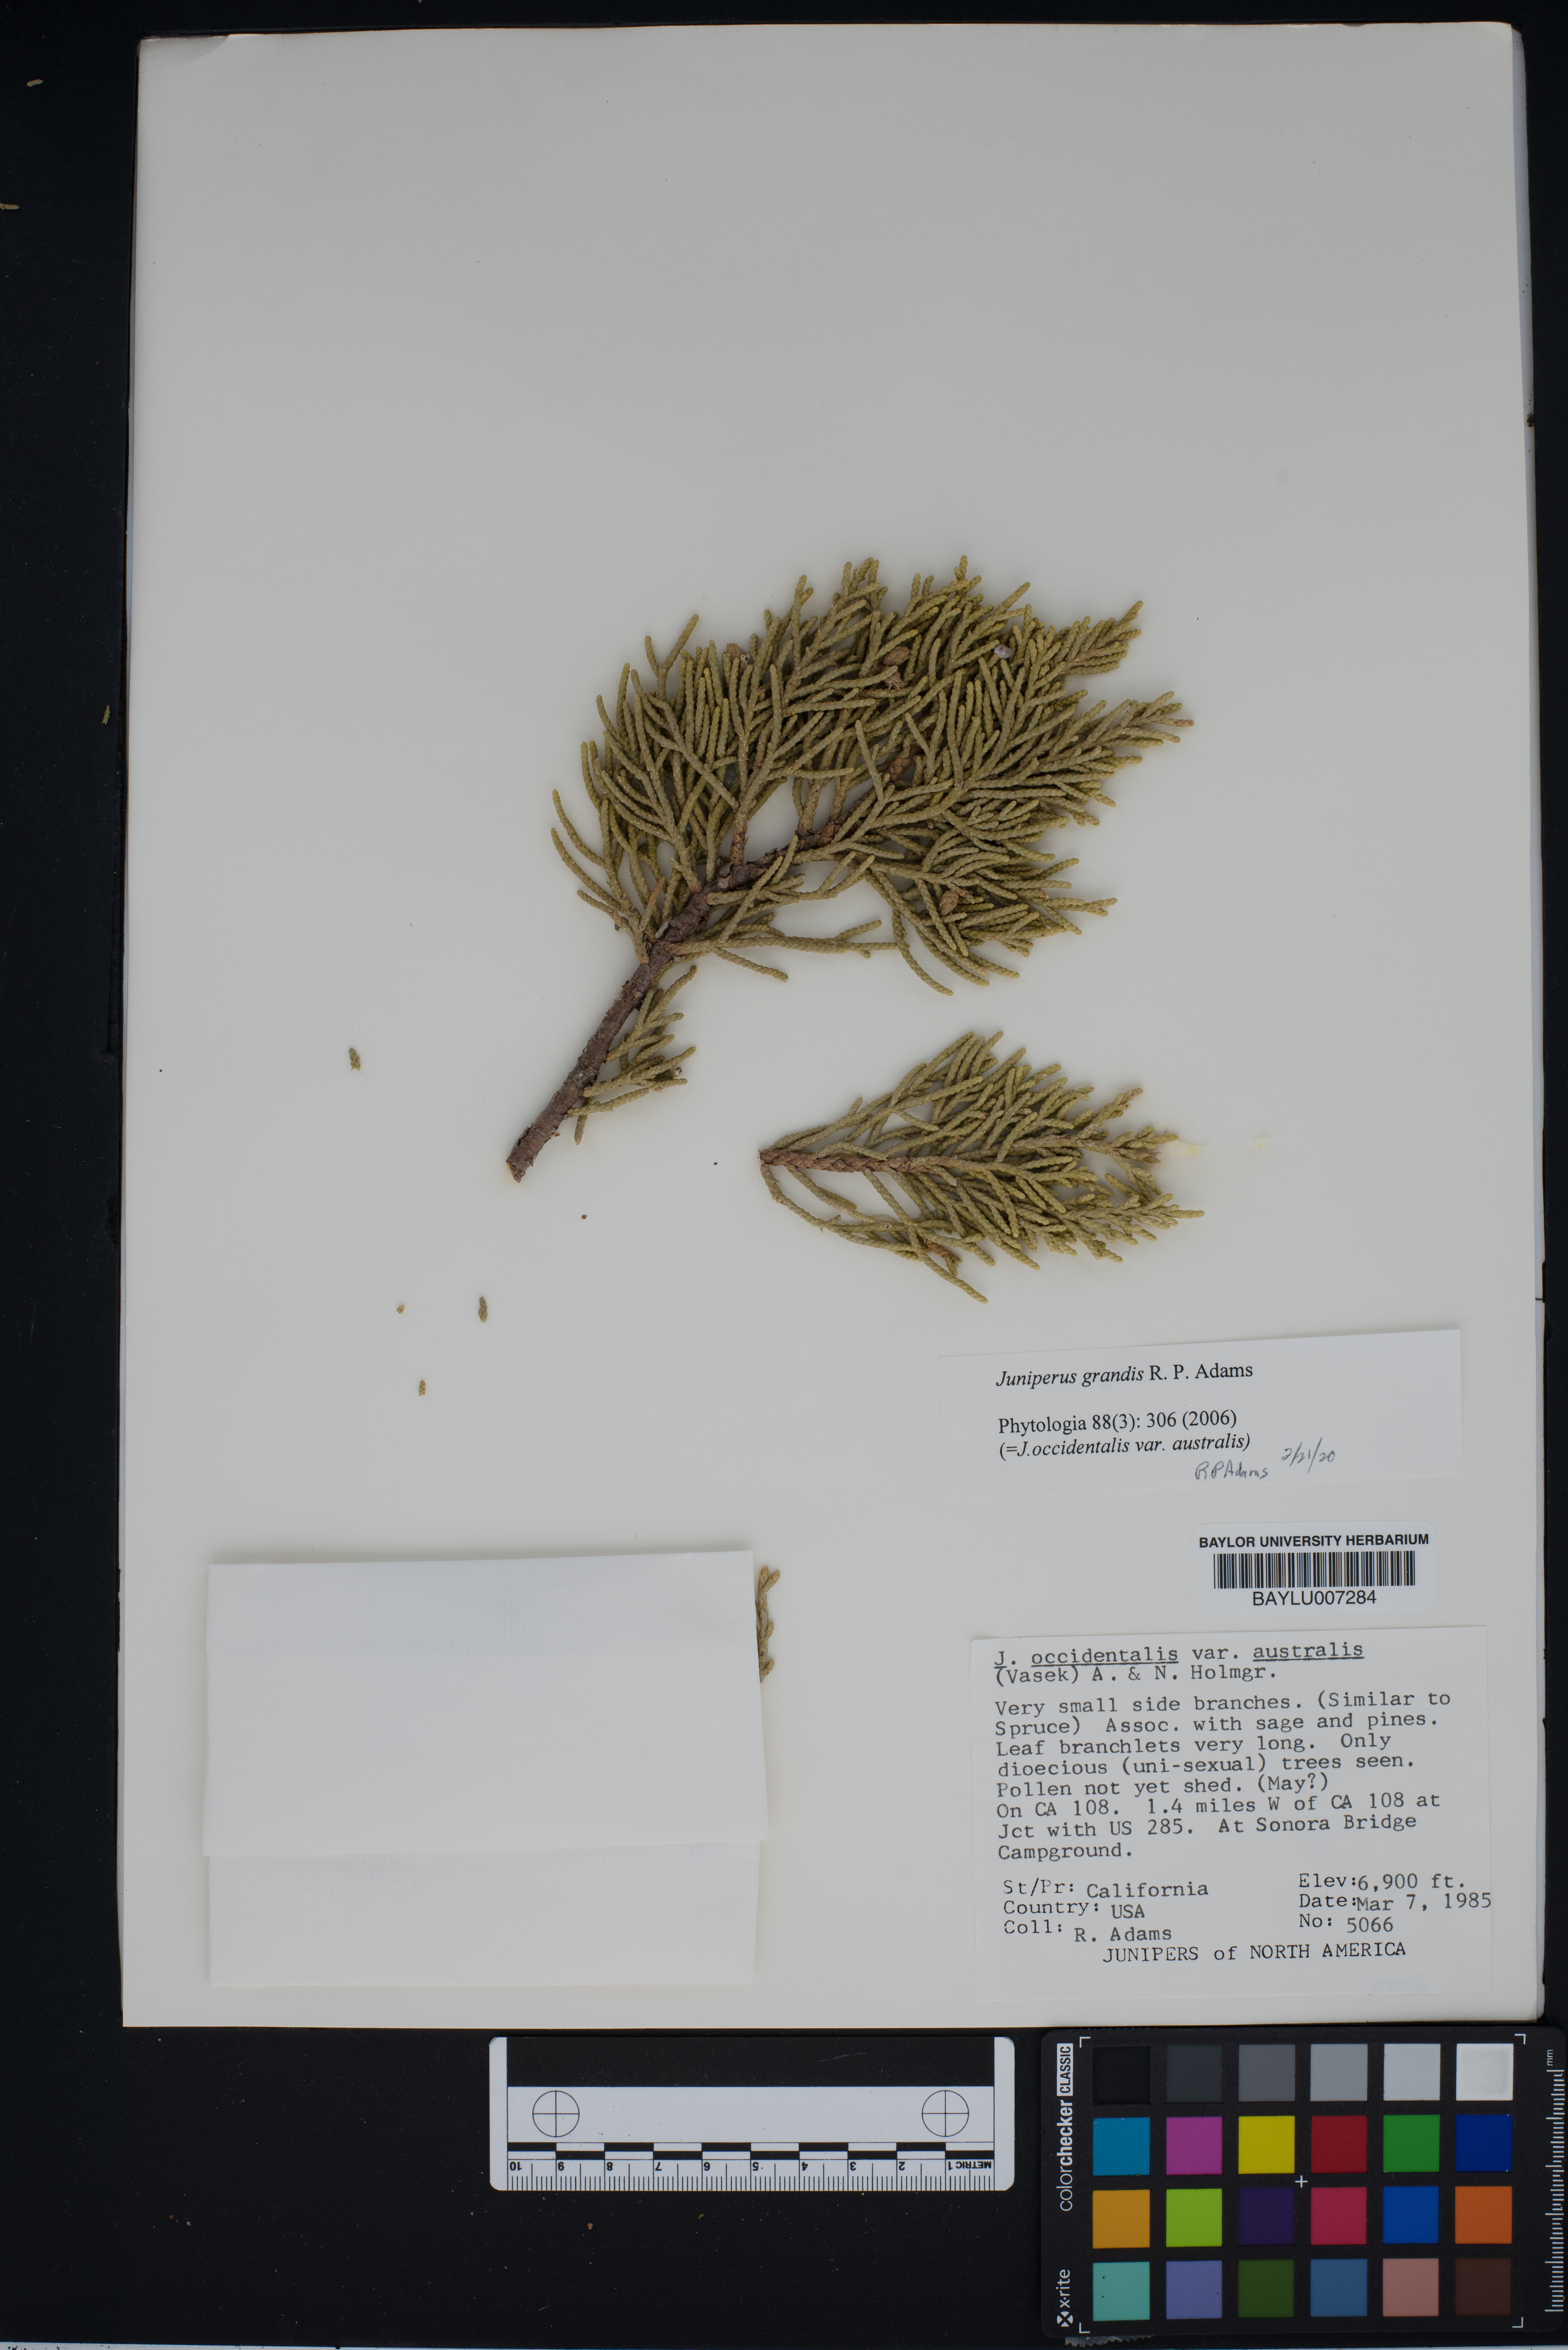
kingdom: Plantae
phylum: Tracheophyta
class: Pinopsida
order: Pinales
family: Cupressaceae
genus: Juniperus
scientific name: Juniperus occidentalis
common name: Western juniper
